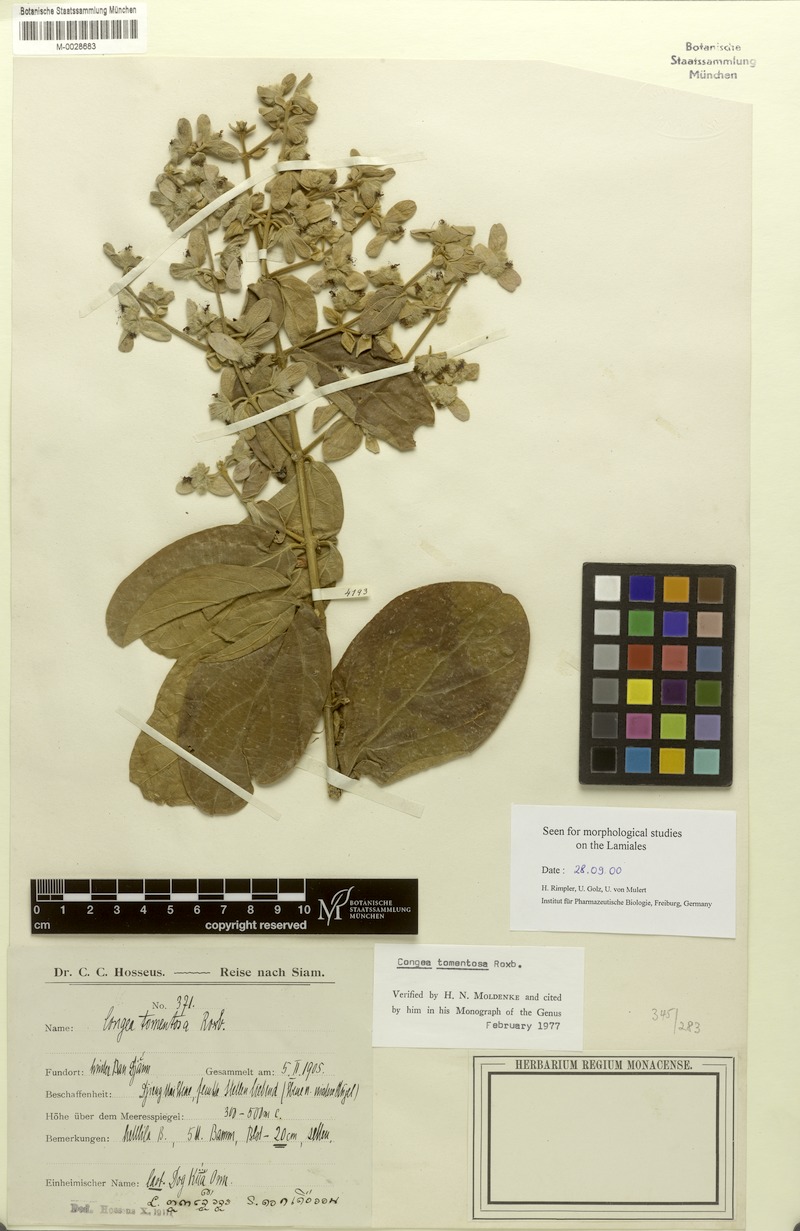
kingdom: Plantae
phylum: Tracheophyta
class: Magnoliopsida
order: Lamiales
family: Lamiaceae
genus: Congea
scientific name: Congea tomentosa
